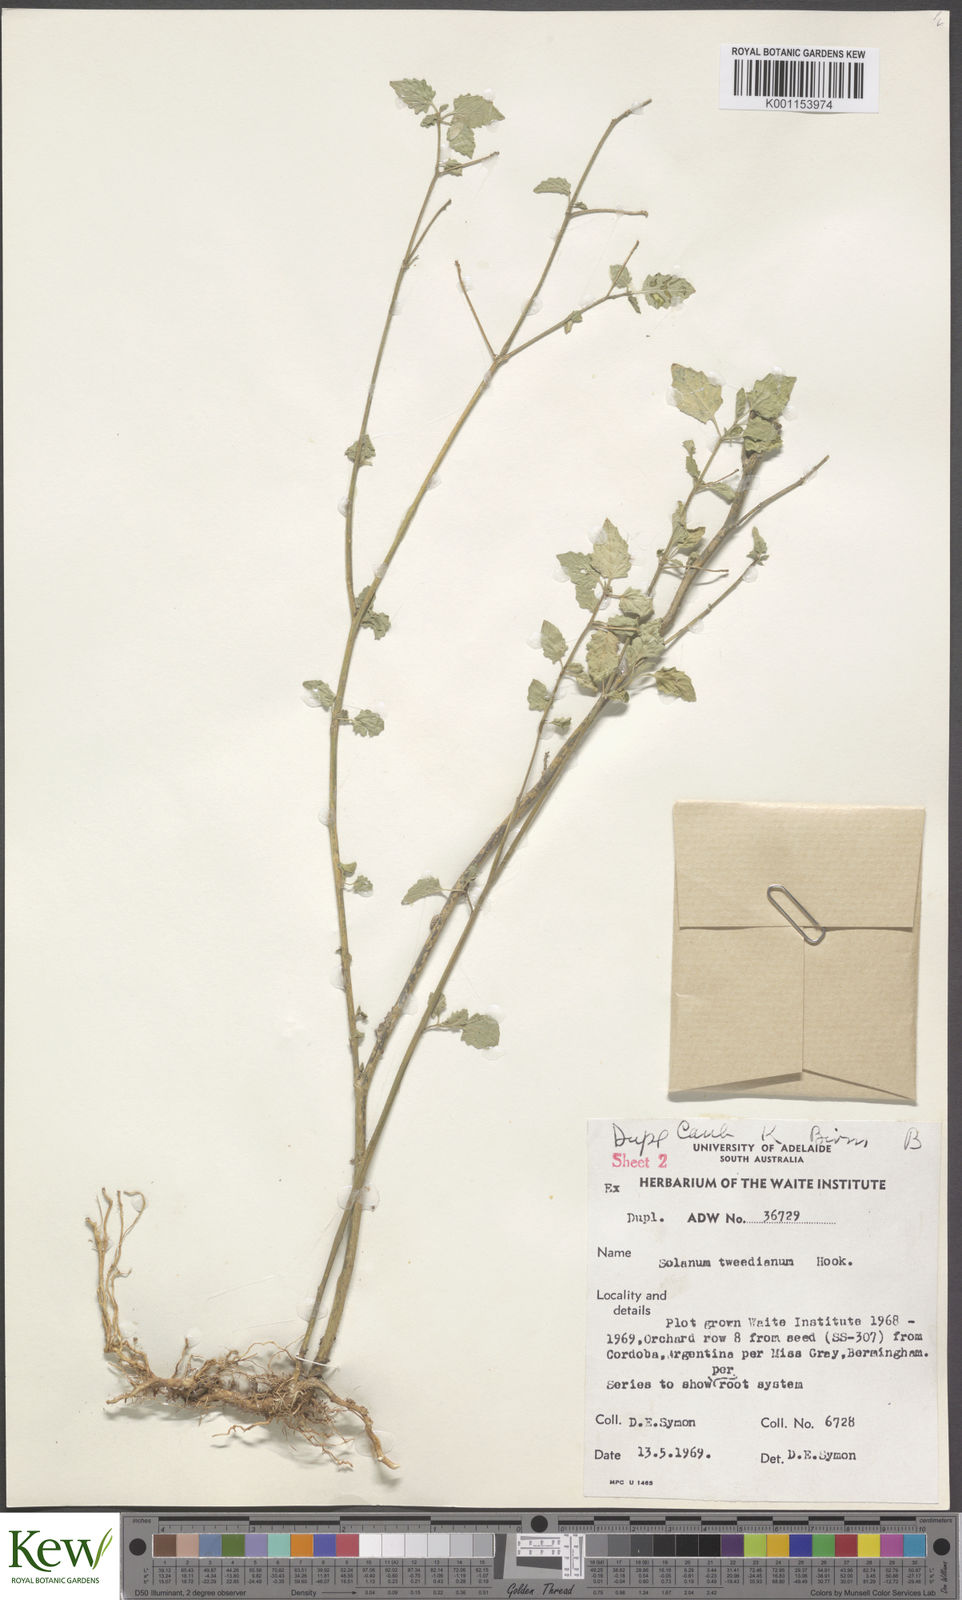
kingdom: Plantae
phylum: Tracheophyta
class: Magnoliopsida
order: Solanales
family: Solanaceae
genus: Solanum
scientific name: Solanum
